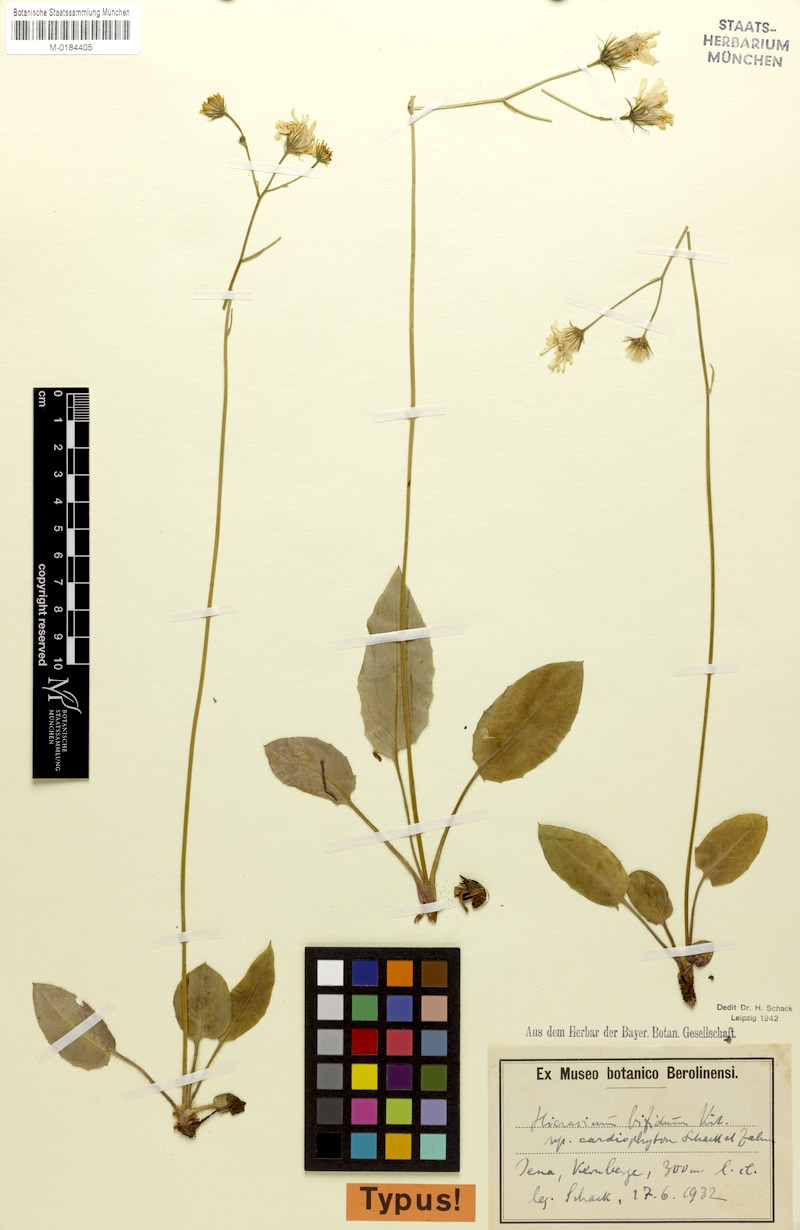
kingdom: Plantae
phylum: Tracheophyta
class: Magnoliopsida
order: Asterales
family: Asteraceae
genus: Hieracium
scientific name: Hieracium bifidum
